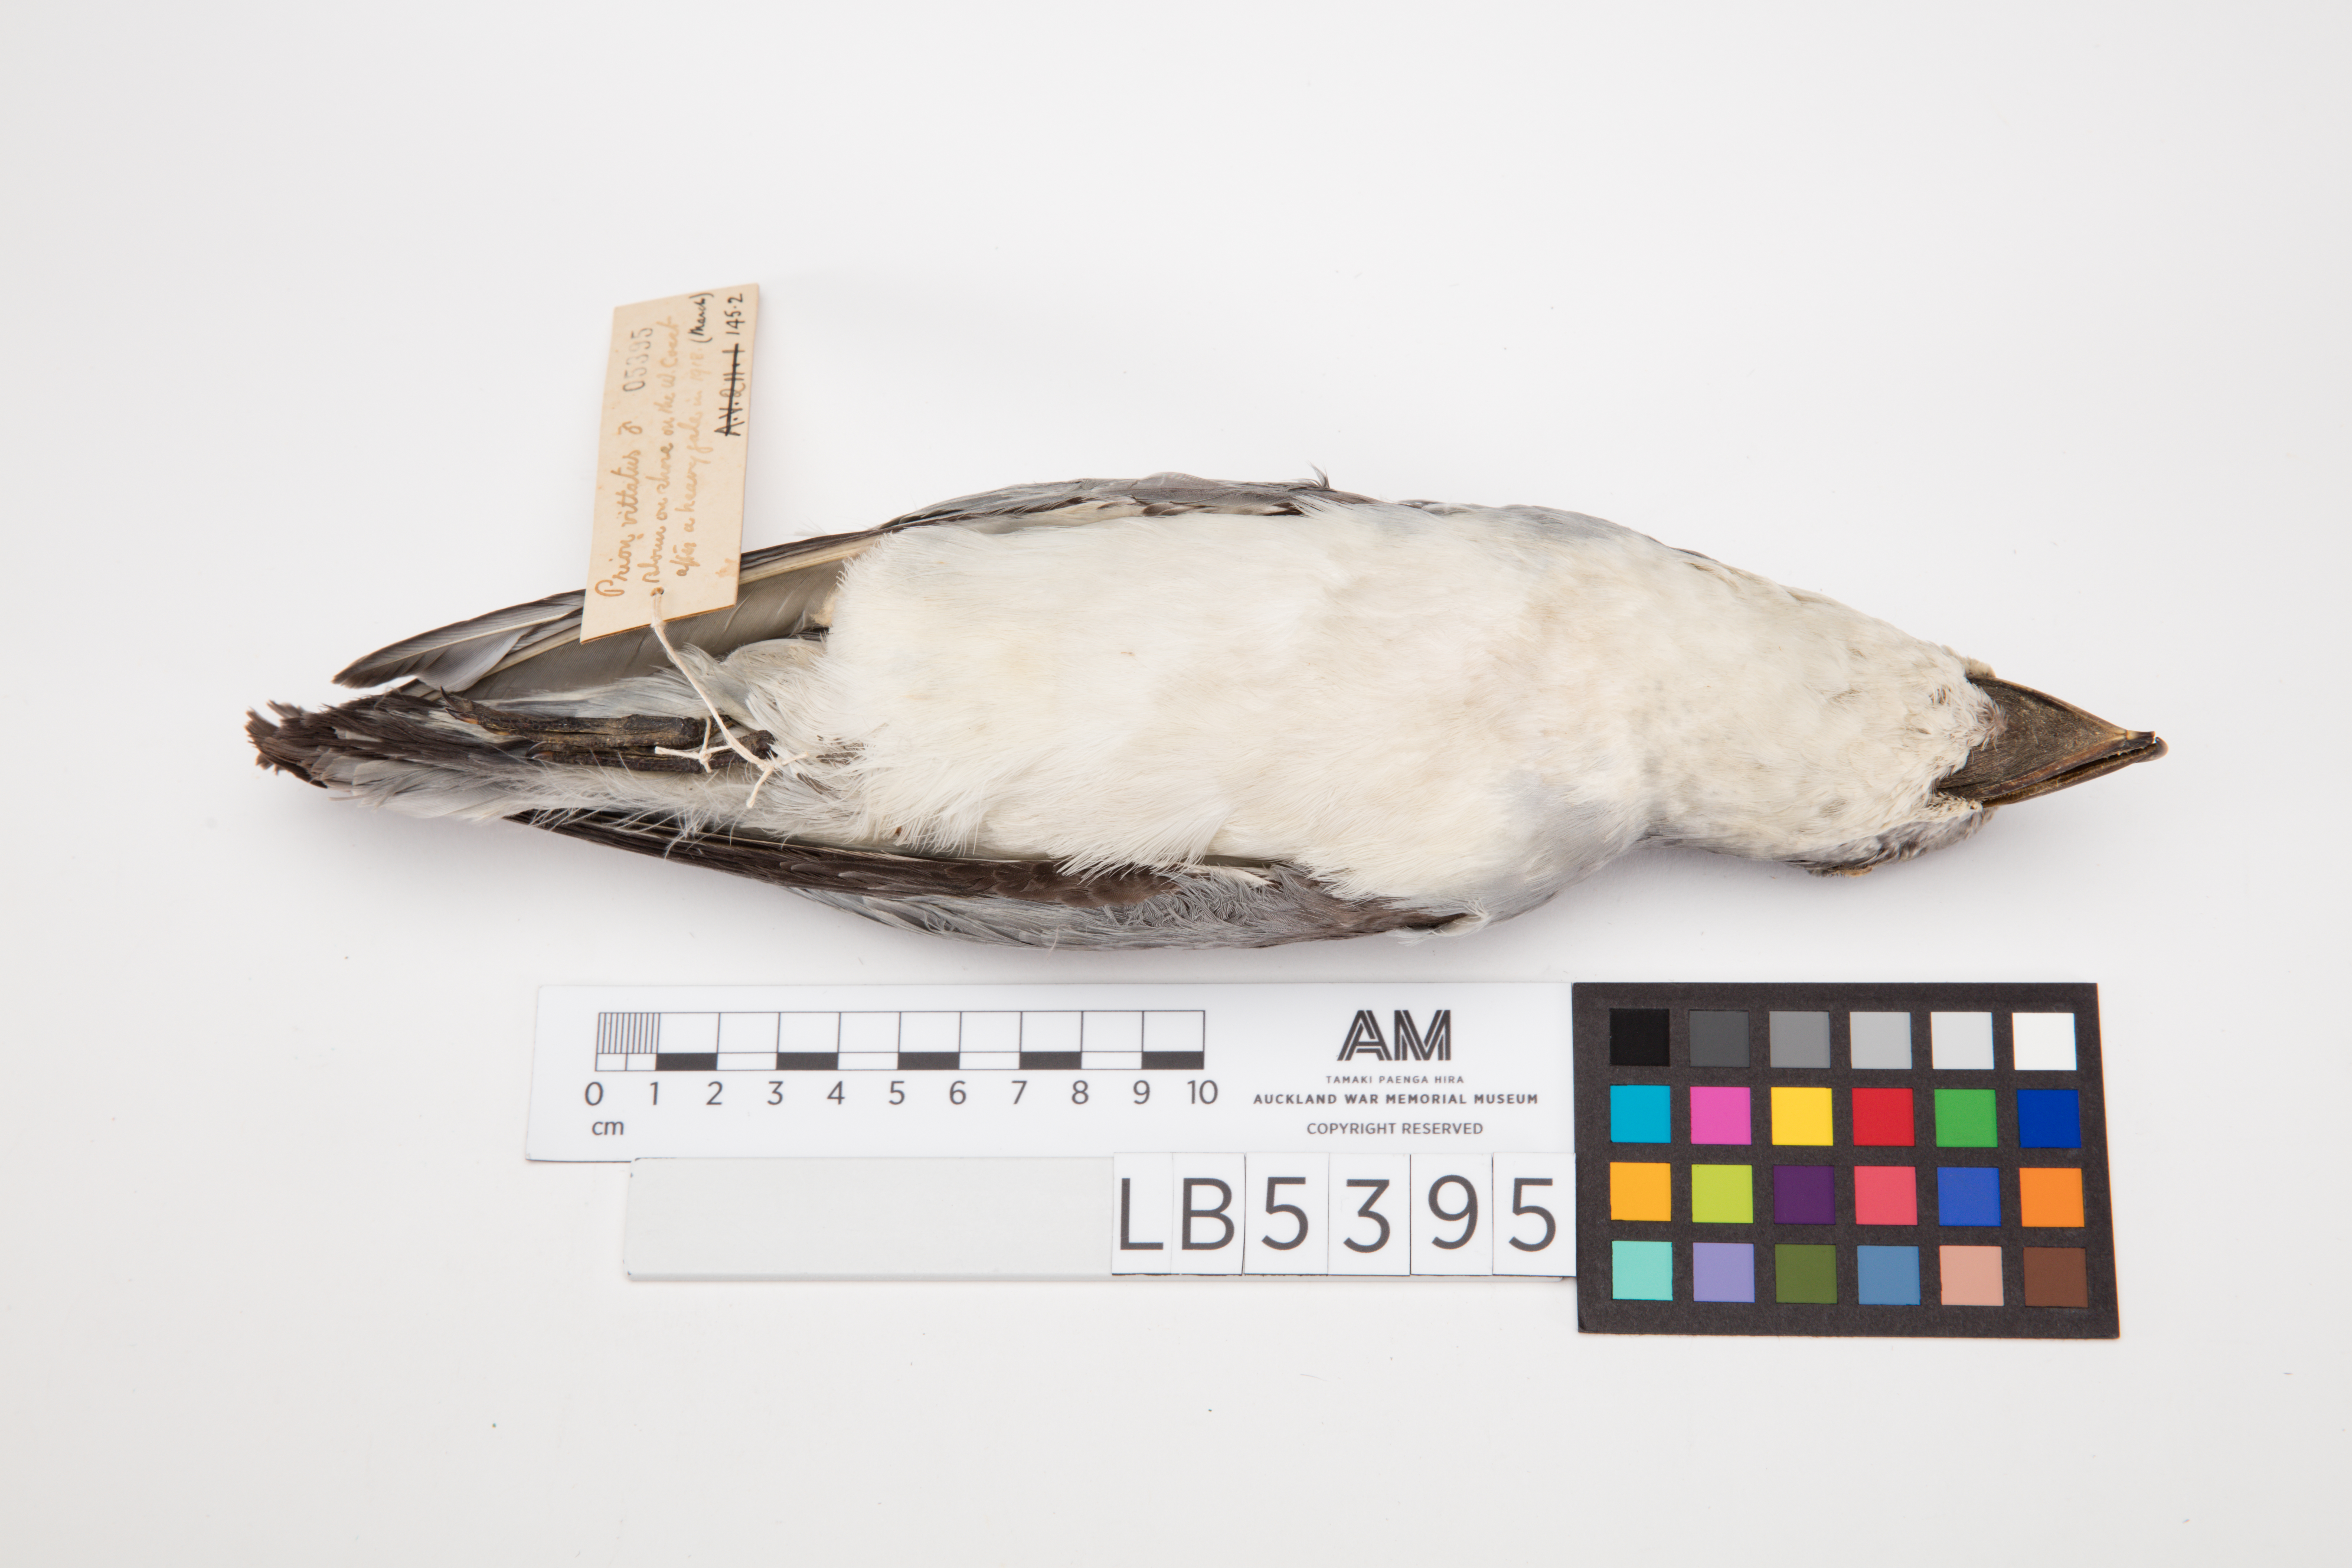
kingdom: Animalia
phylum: Chordata
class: Aves
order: Procellariiformes
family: Procellariidae
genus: Pachyptila
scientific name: Pachyptila vittata
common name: Broad-billed prion
